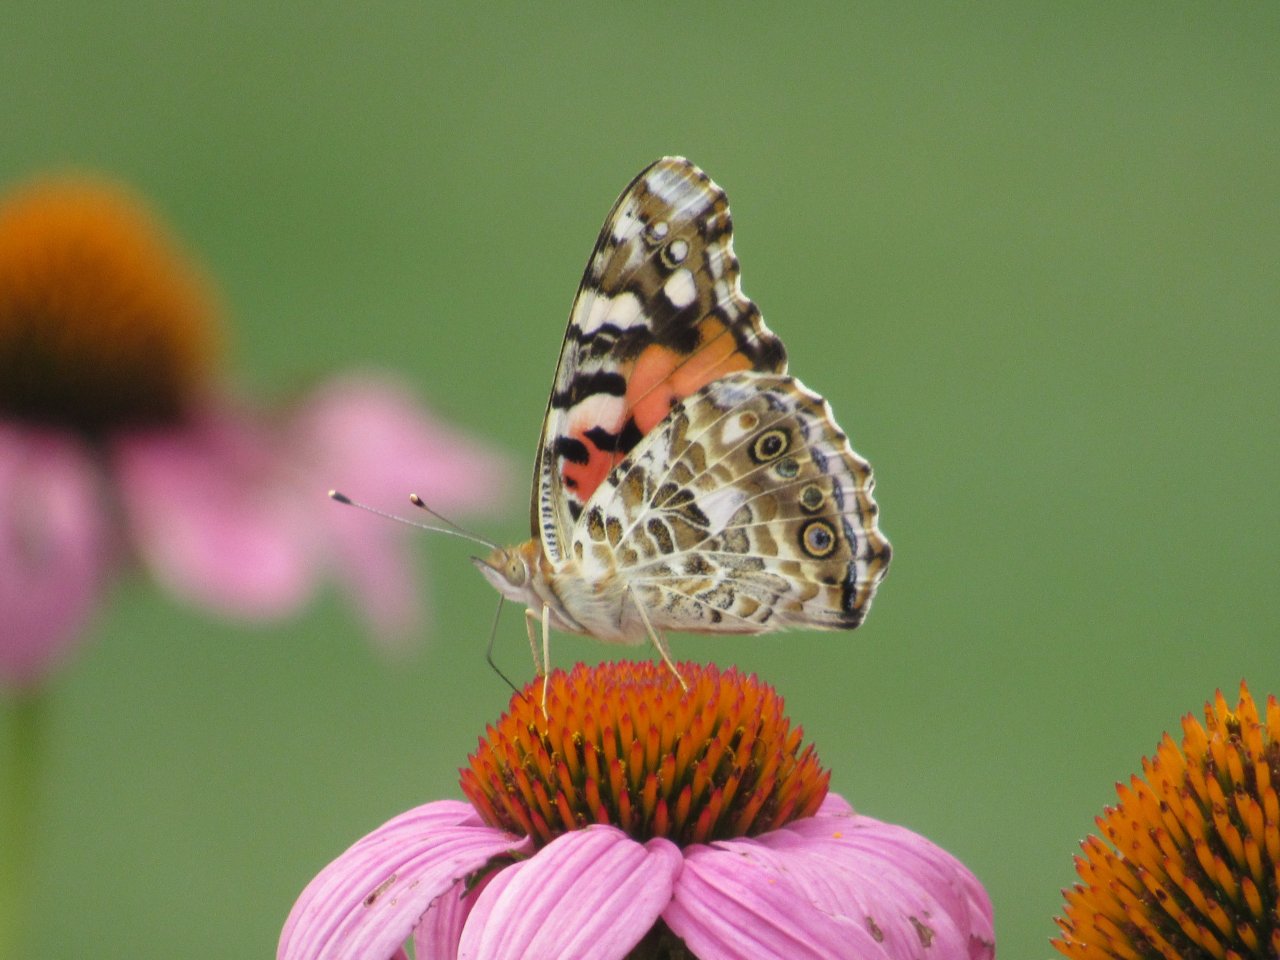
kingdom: Animalia
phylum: Arthropoda
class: Insecta
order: Lepidoptera
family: Nymphalidae
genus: Vanessa
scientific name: Vanessa cardui
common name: Painted Lady
